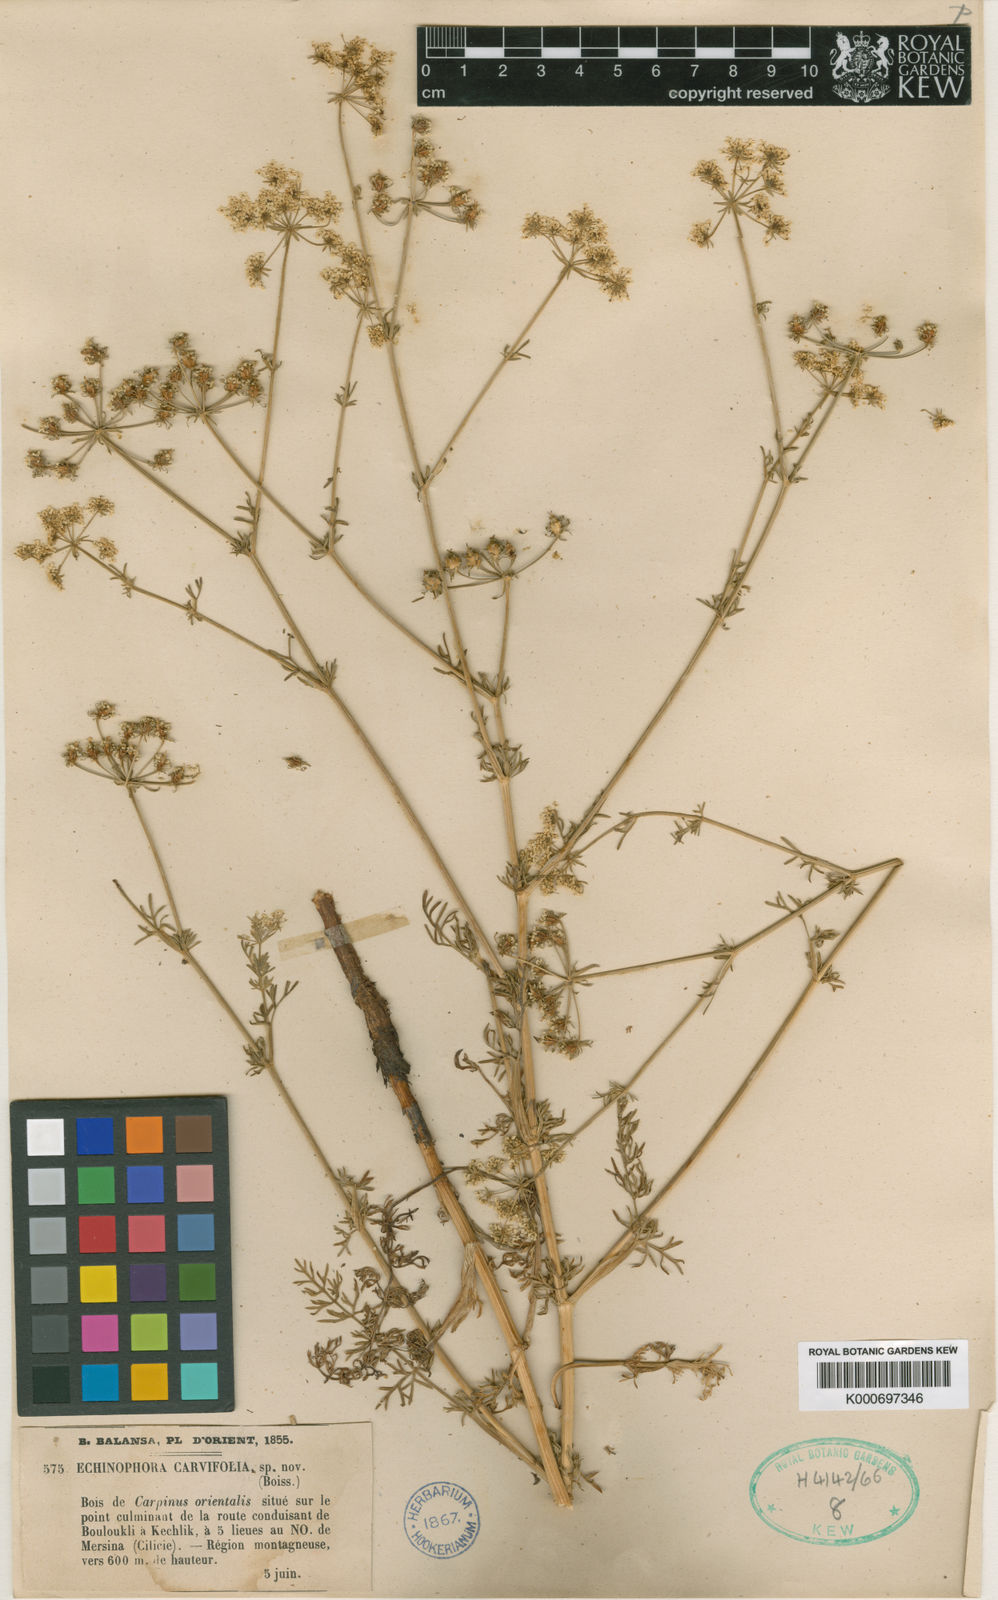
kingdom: Plantae
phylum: Tracheophyta
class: Magnoliopsida
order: Apiales
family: Apiaceae
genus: Thecocarpus
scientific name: Thecocarpus carvifolius
